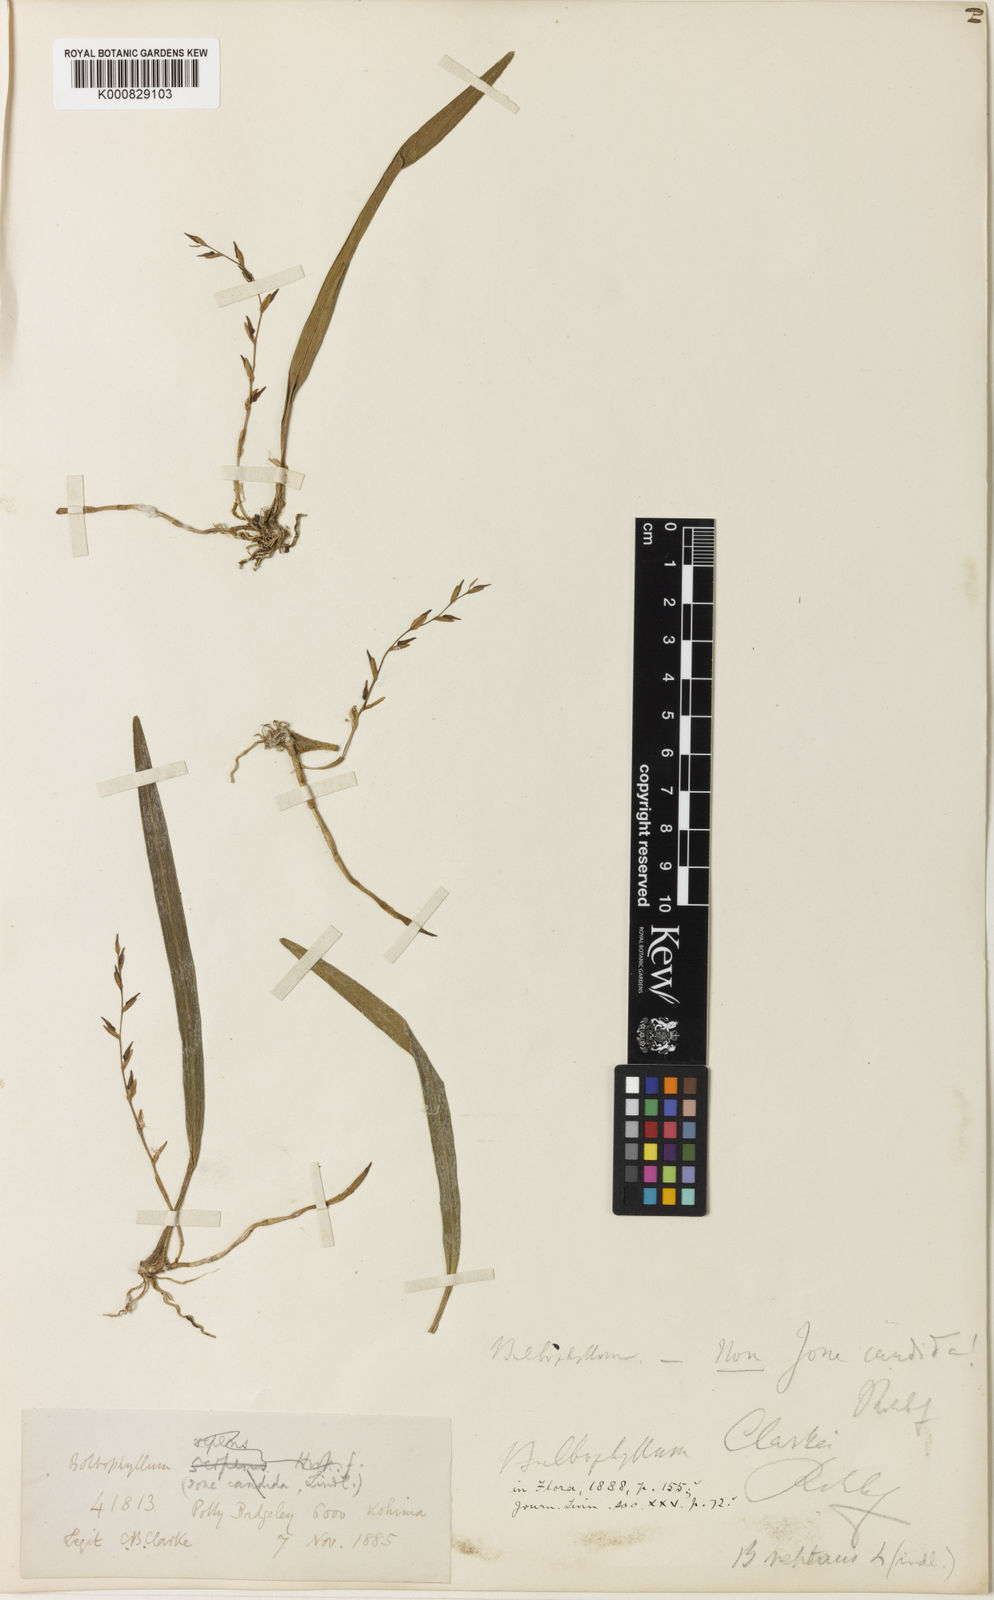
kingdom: Plantae
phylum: Tracheophyta
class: Liliopsida
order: Asparagales
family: Orchidaceae
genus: Bulbophyllum
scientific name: Bulbophyllum
